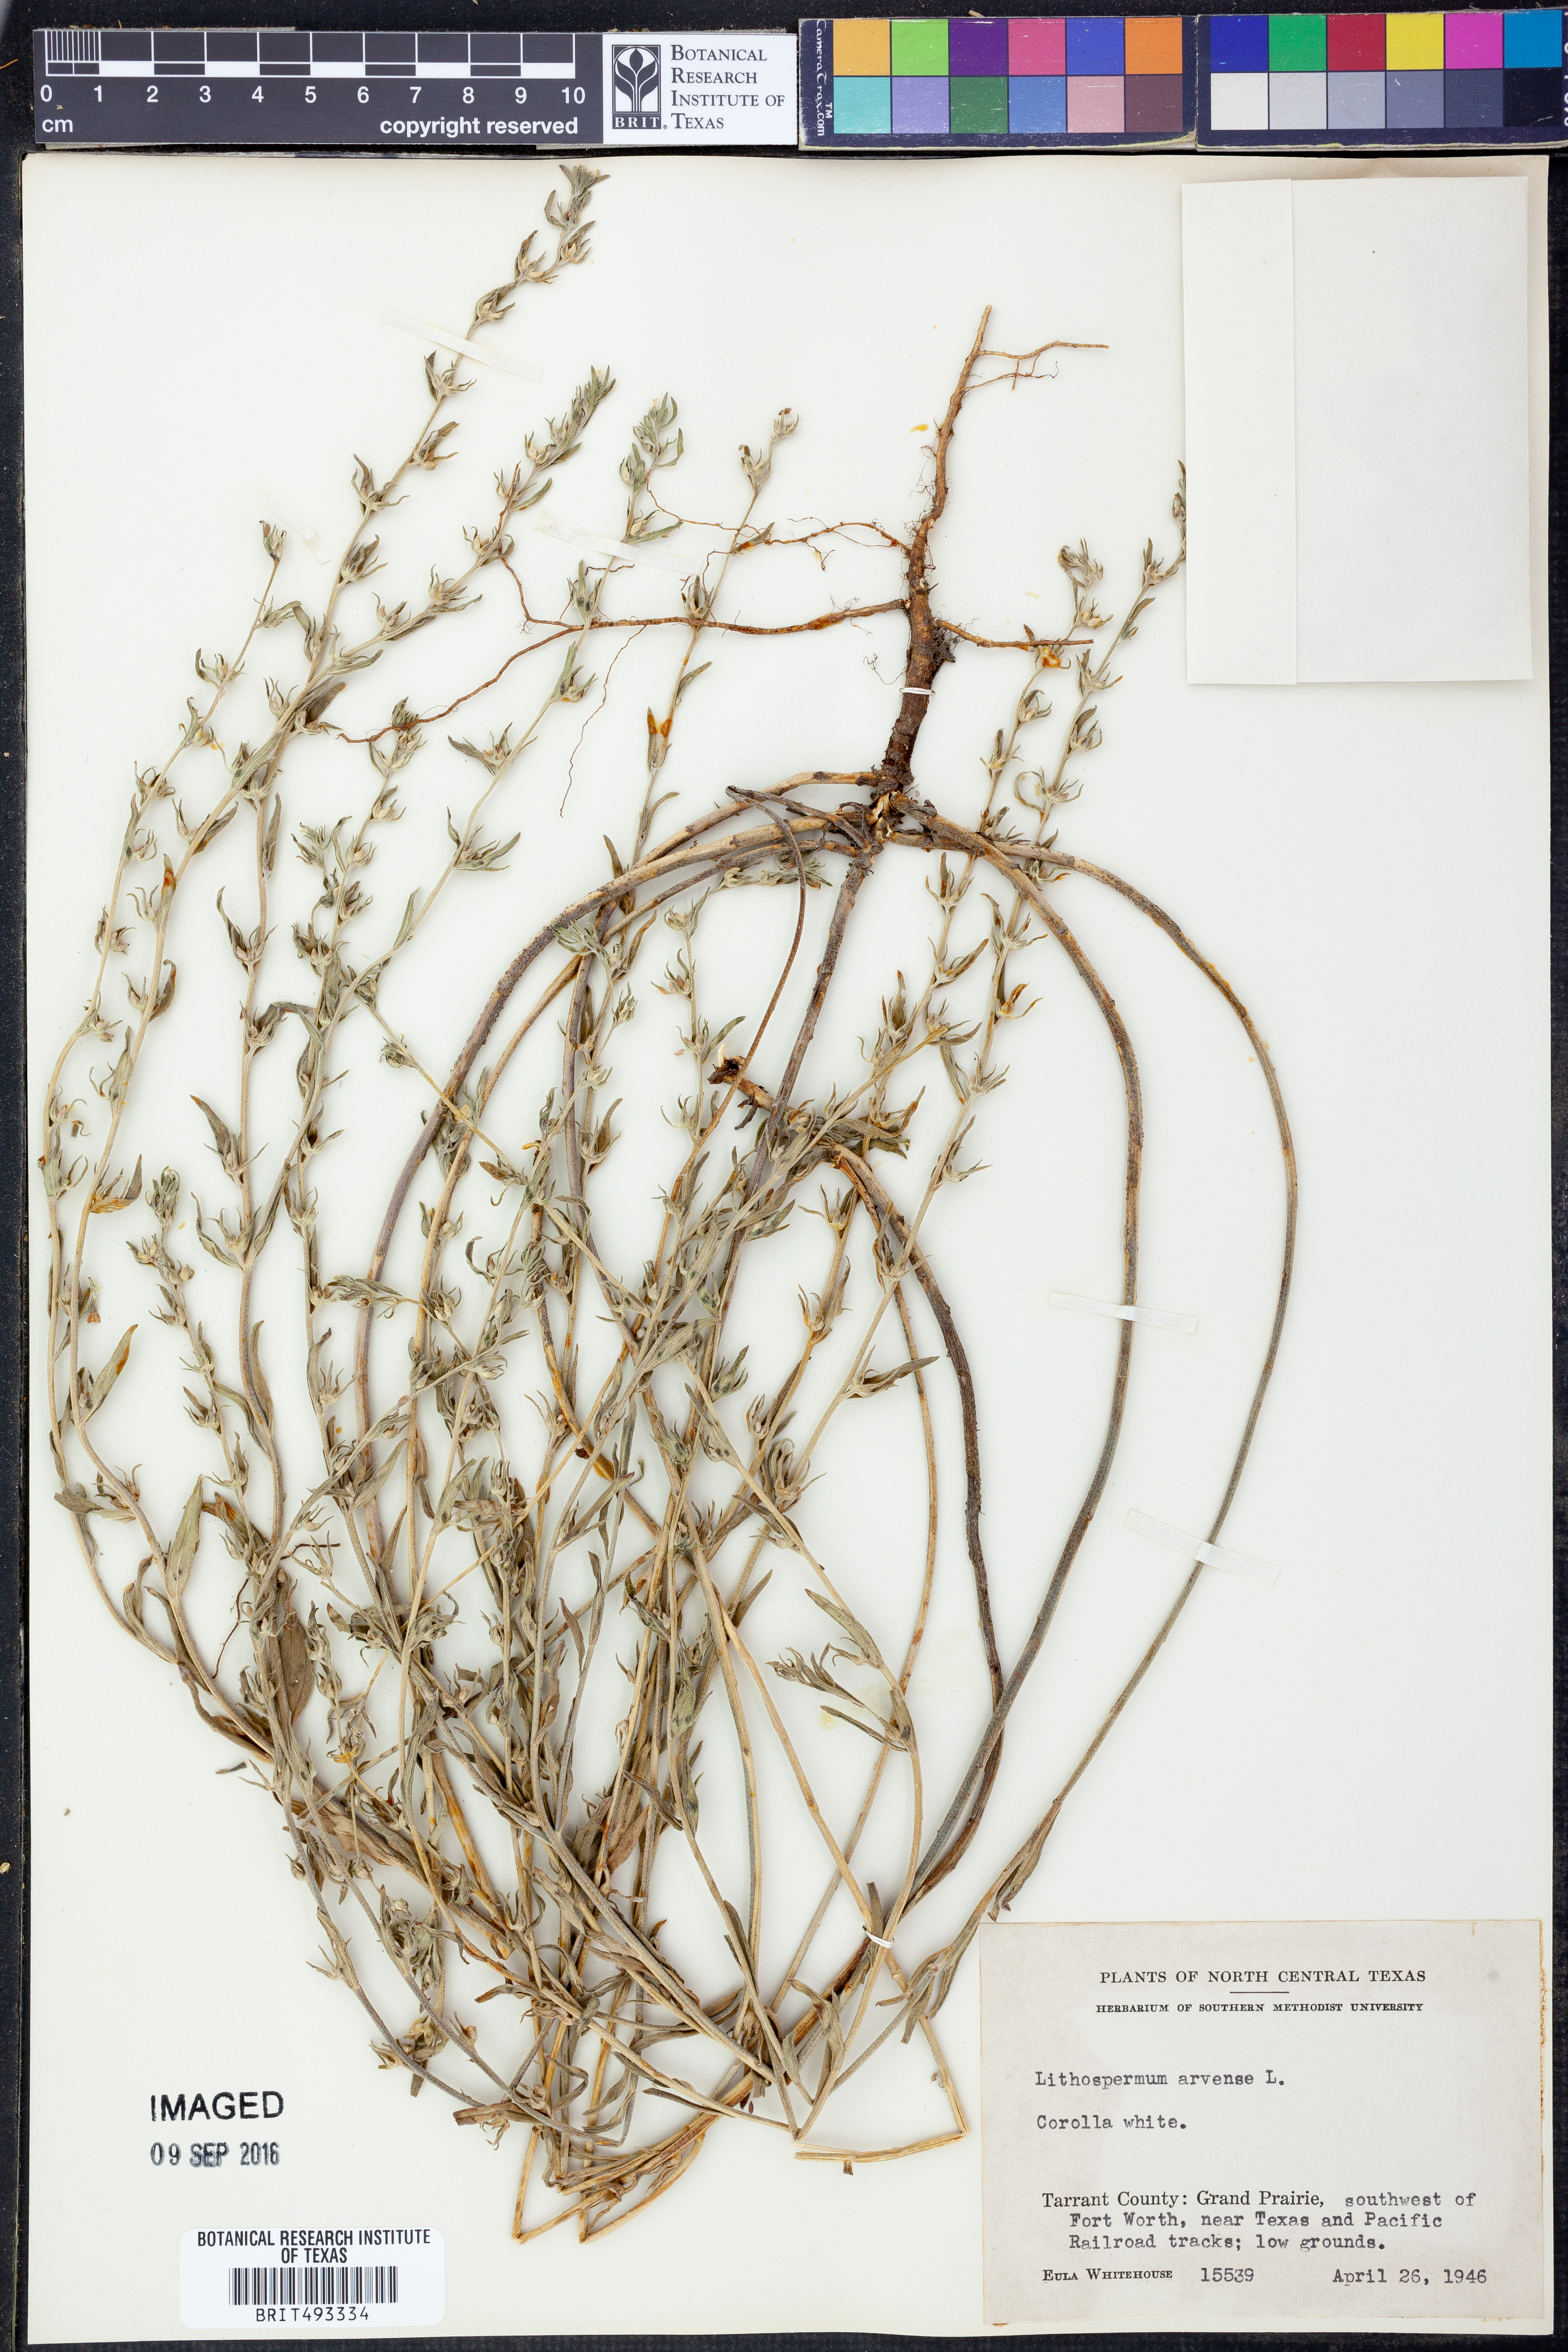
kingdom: Plantae
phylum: Tracheophyta
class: Magnoliopsida
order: Boraginales
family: Boraginaceae
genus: Lithospermum
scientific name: Lithospermum erythrorhizon
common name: Purple gromwell
